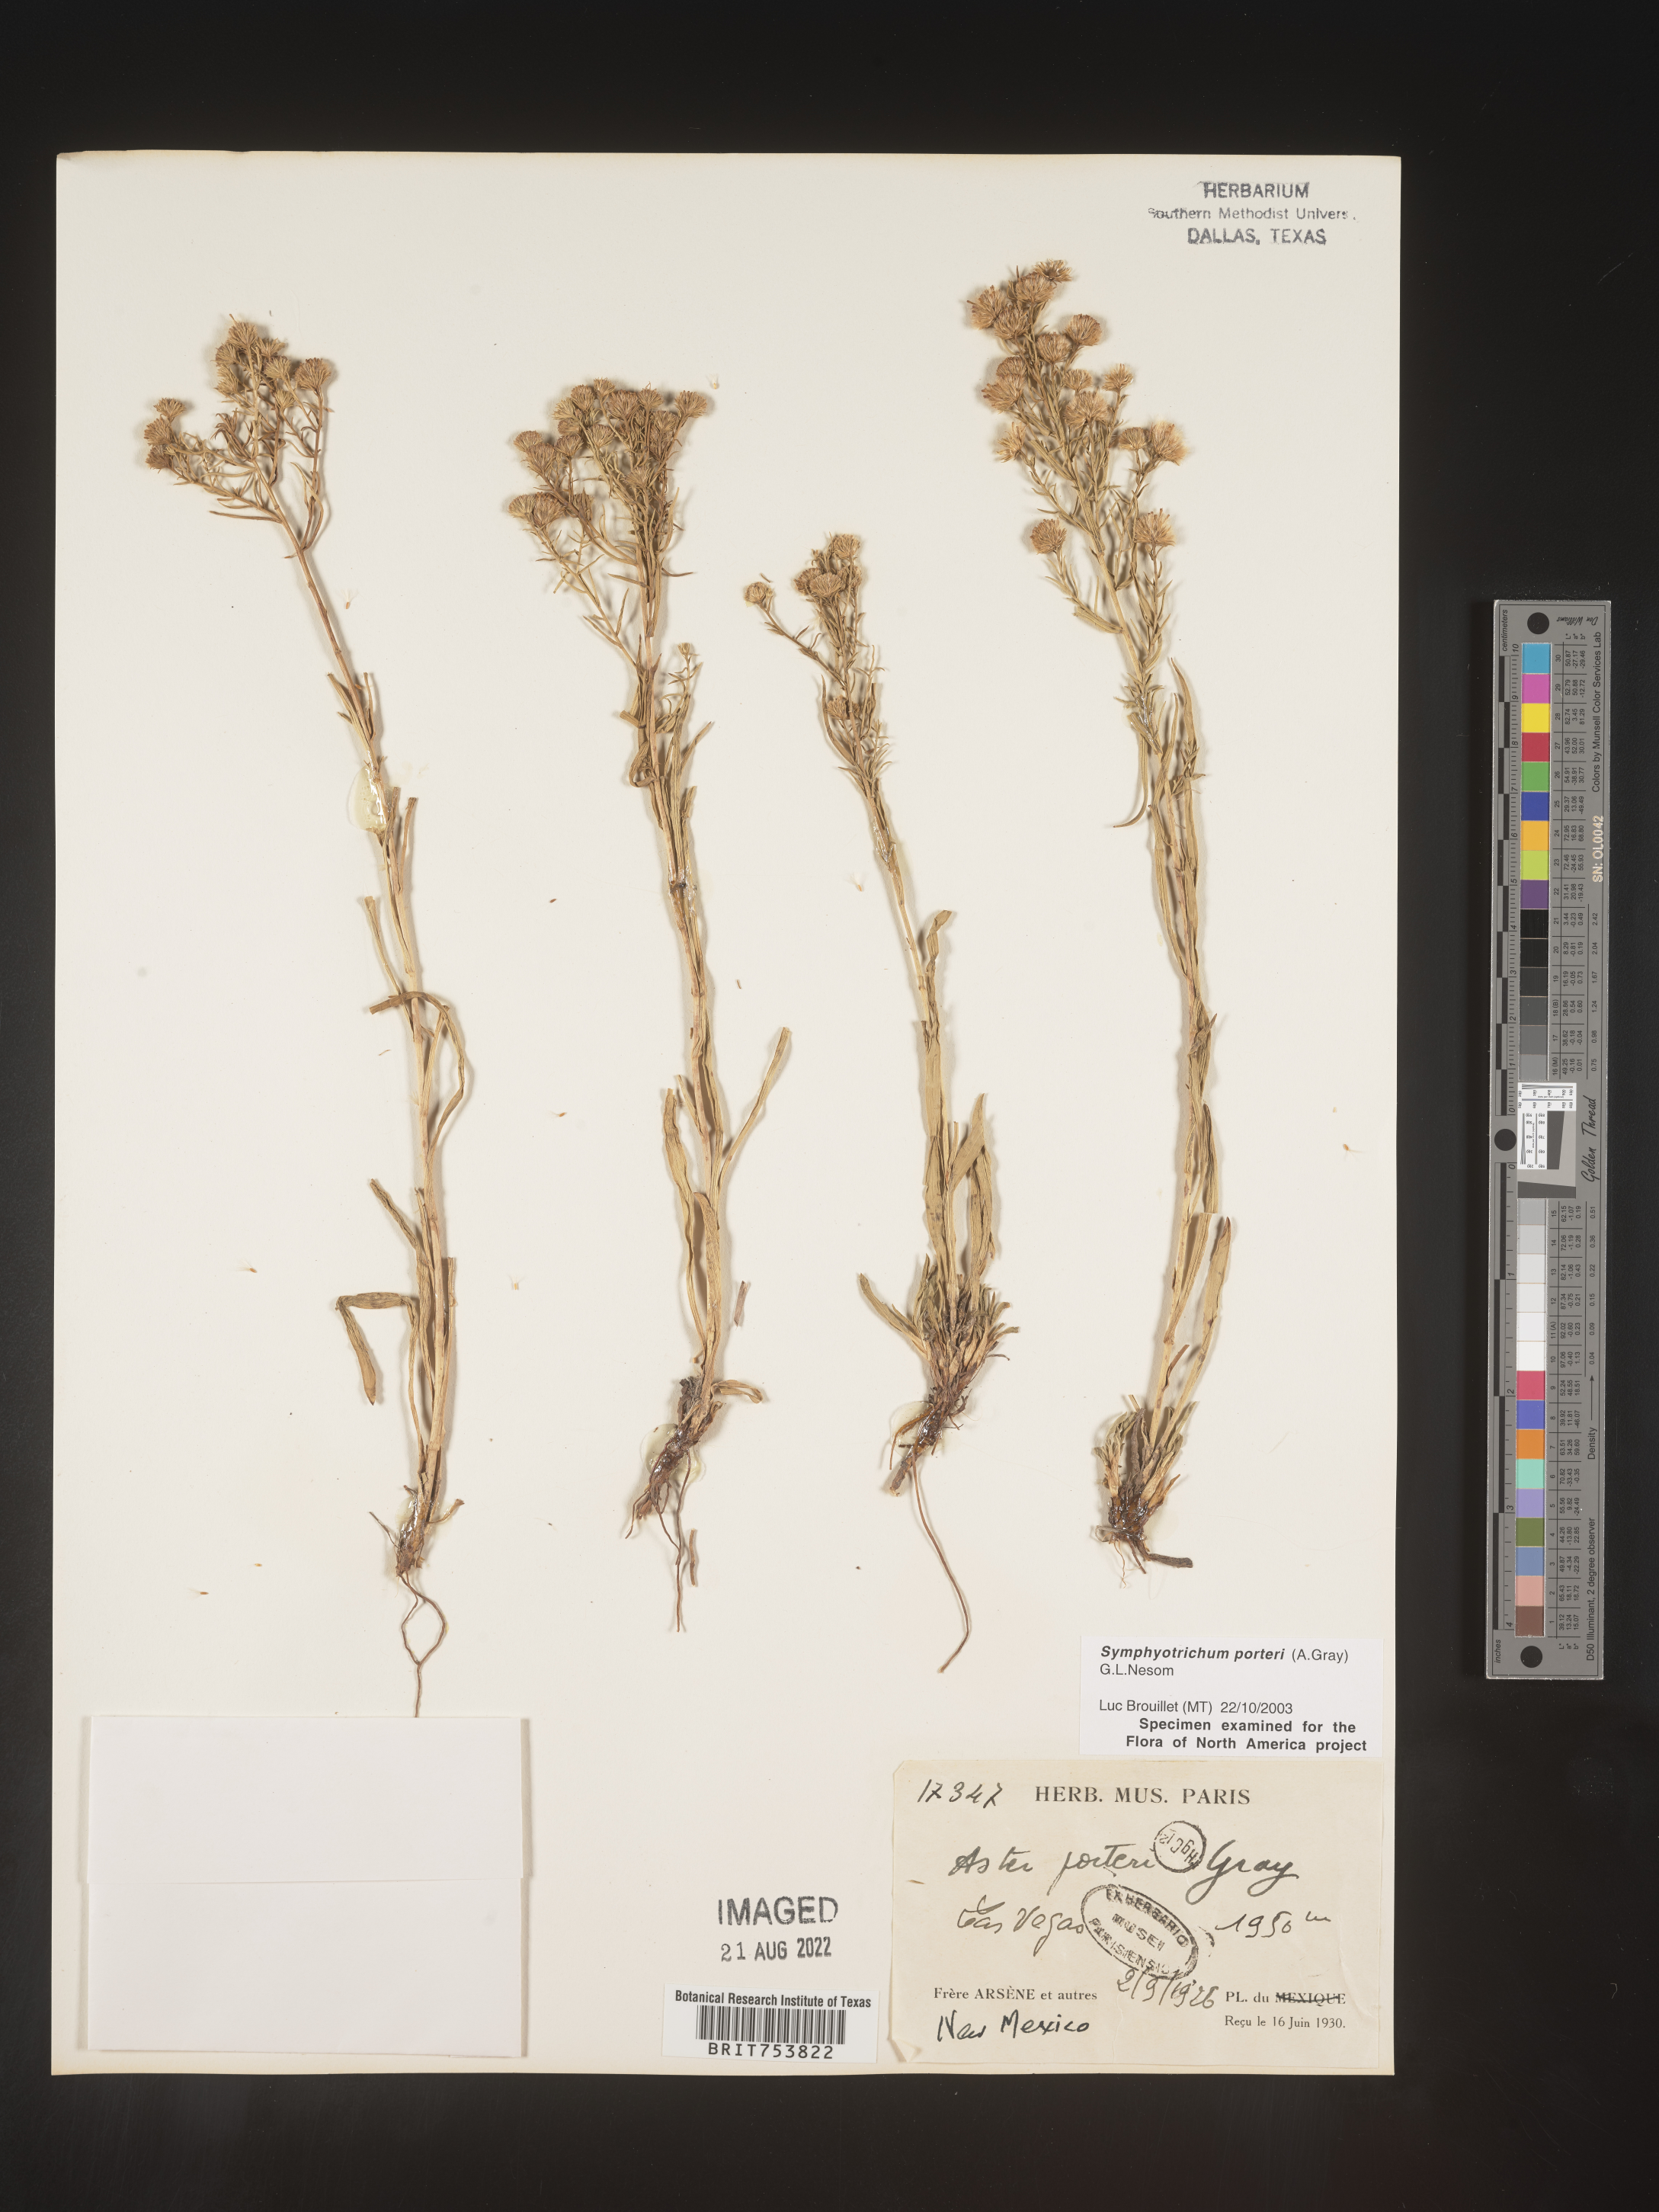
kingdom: Plantae
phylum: Tracheophyta
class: Magnoliopsida
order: Asterales
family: Asteraceae
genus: Symphyotrichum
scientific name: Symphyotrichum porteri
